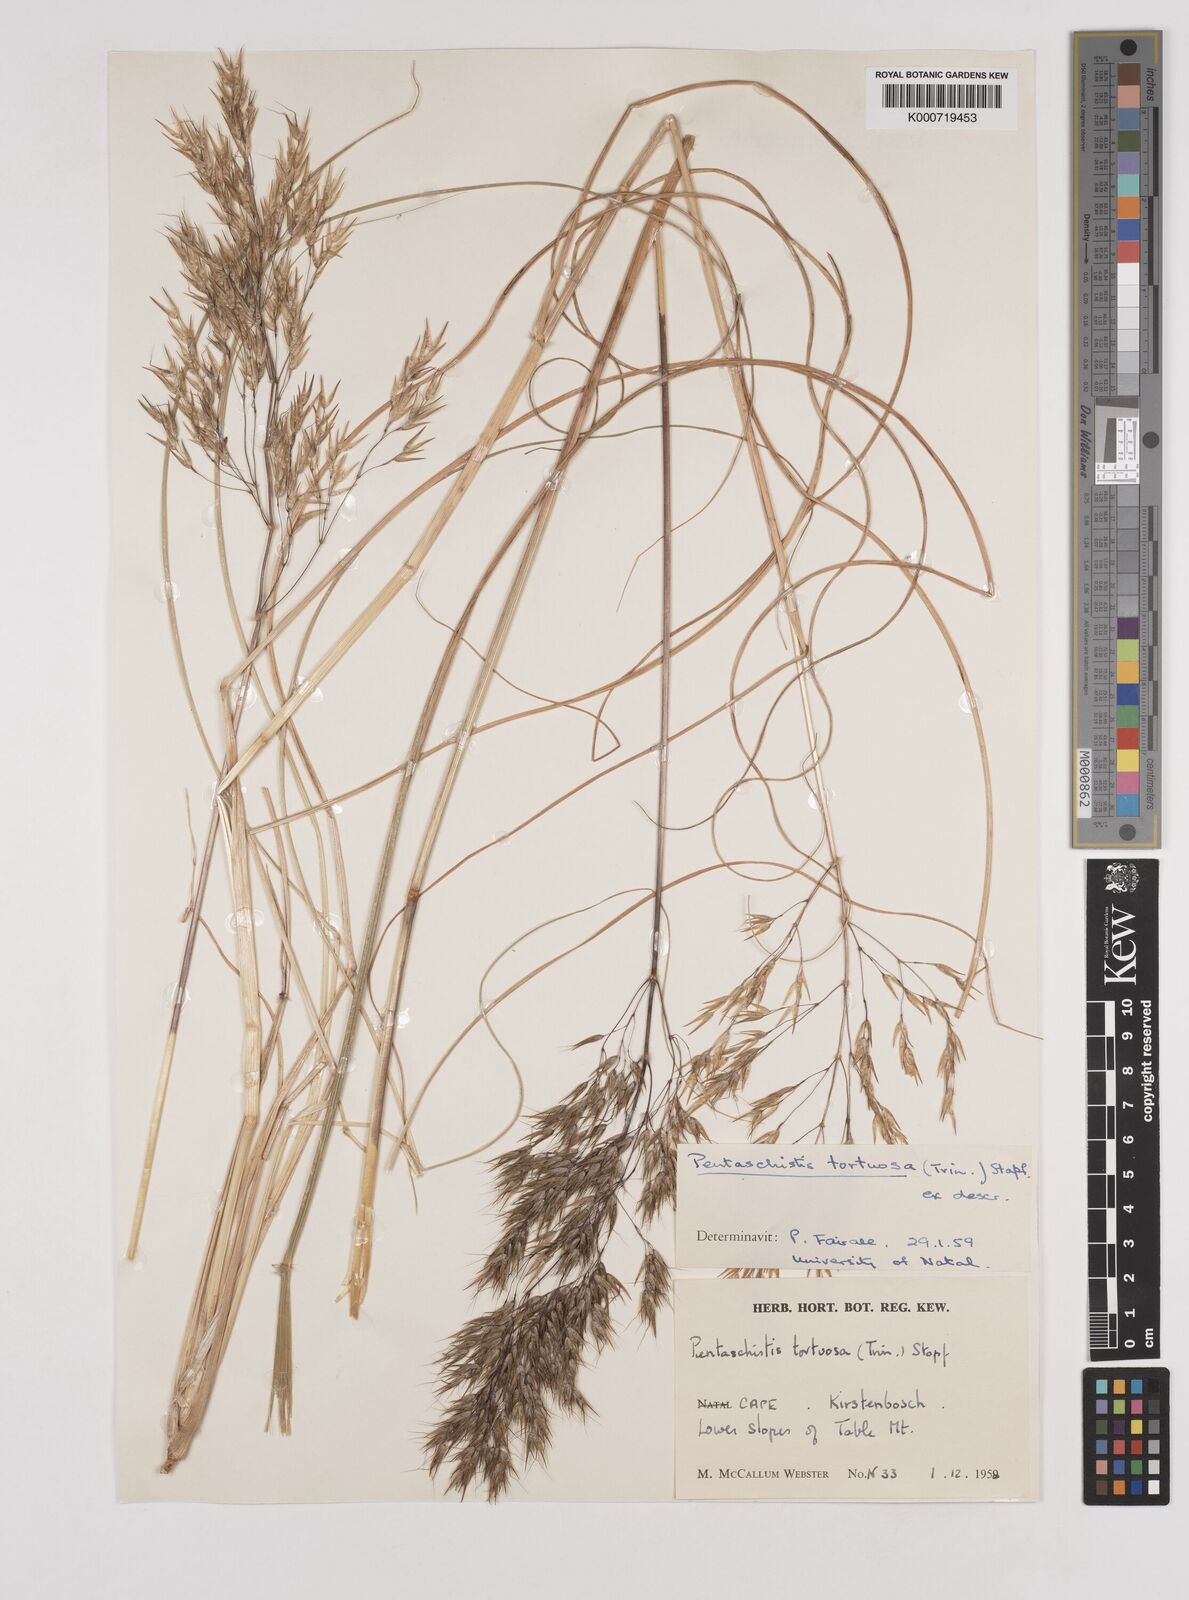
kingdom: Plantae
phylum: Tracheophyta
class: Liliopsida
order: Poales
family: Poaceae
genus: Pentameris
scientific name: Pentameris pallescens
